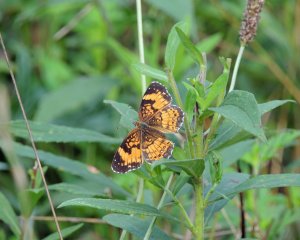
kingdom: Animalia
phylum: Arthropoda
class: Insecta
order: Lepidoptera
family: Nymphalidae
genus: Chlosyne
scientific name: Chlosyne nycteis
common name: Silvery Checkerspot
